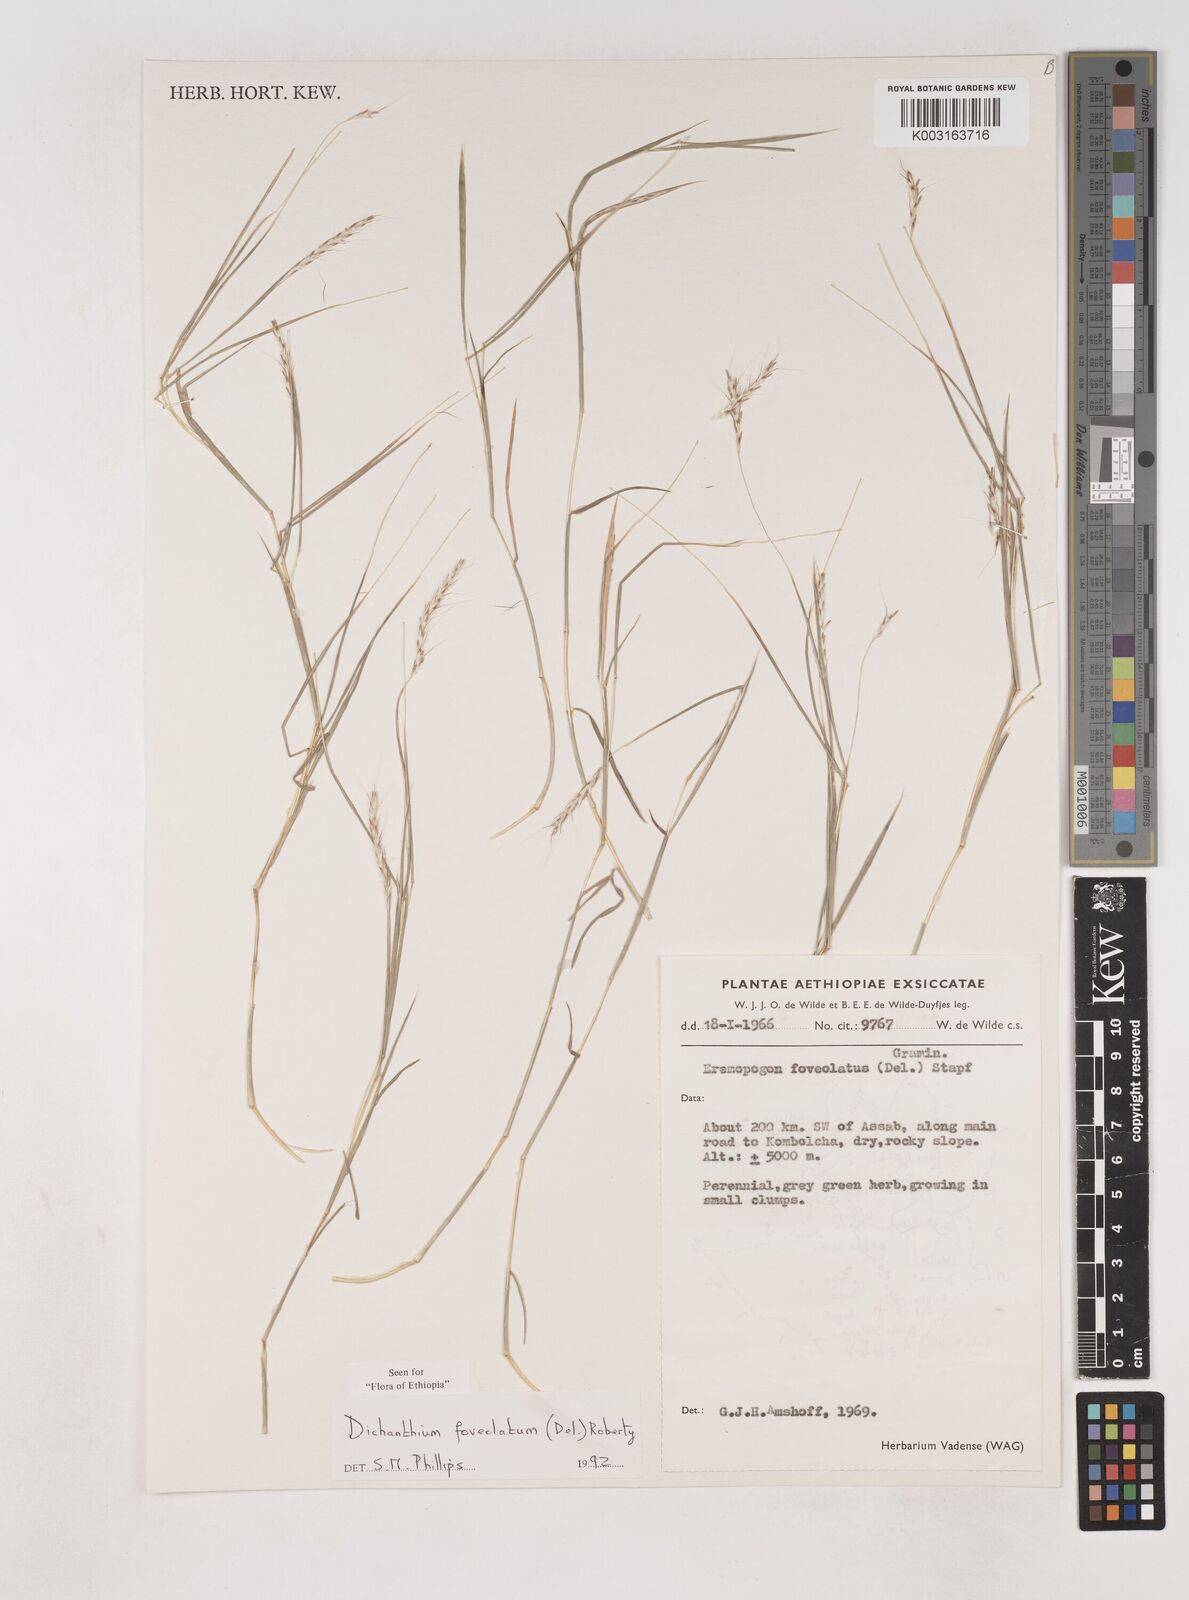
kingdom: Plantae
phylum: Tracheophyta
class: Liliopsida
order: Poales
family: Poaceae
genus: Dichanthium
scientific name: Dichanthium foveolatum
